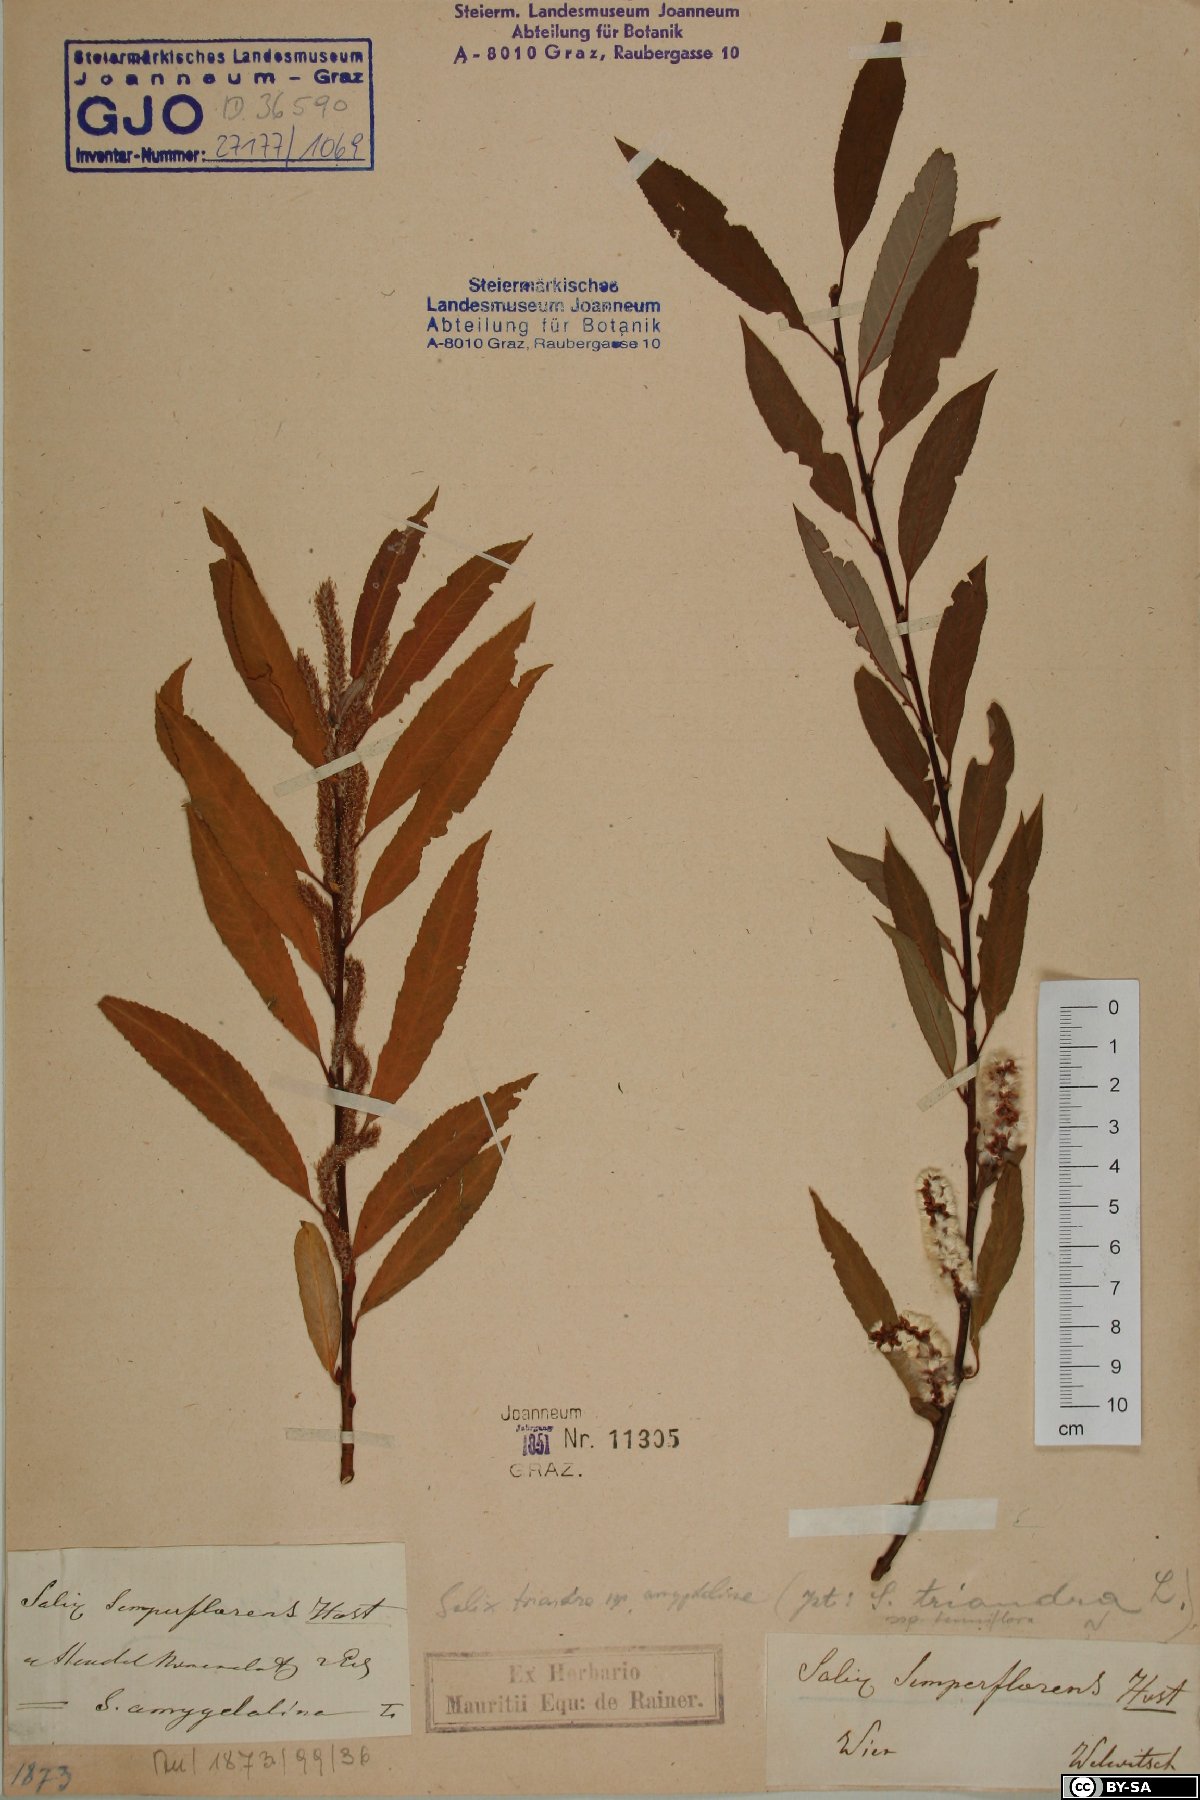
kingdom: Plantae
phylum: Tracheophyta
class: Magnoliopsida
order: Malpighiales
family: Salicaceae
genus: Salix
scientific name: Salix triandra
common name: Almond willow
